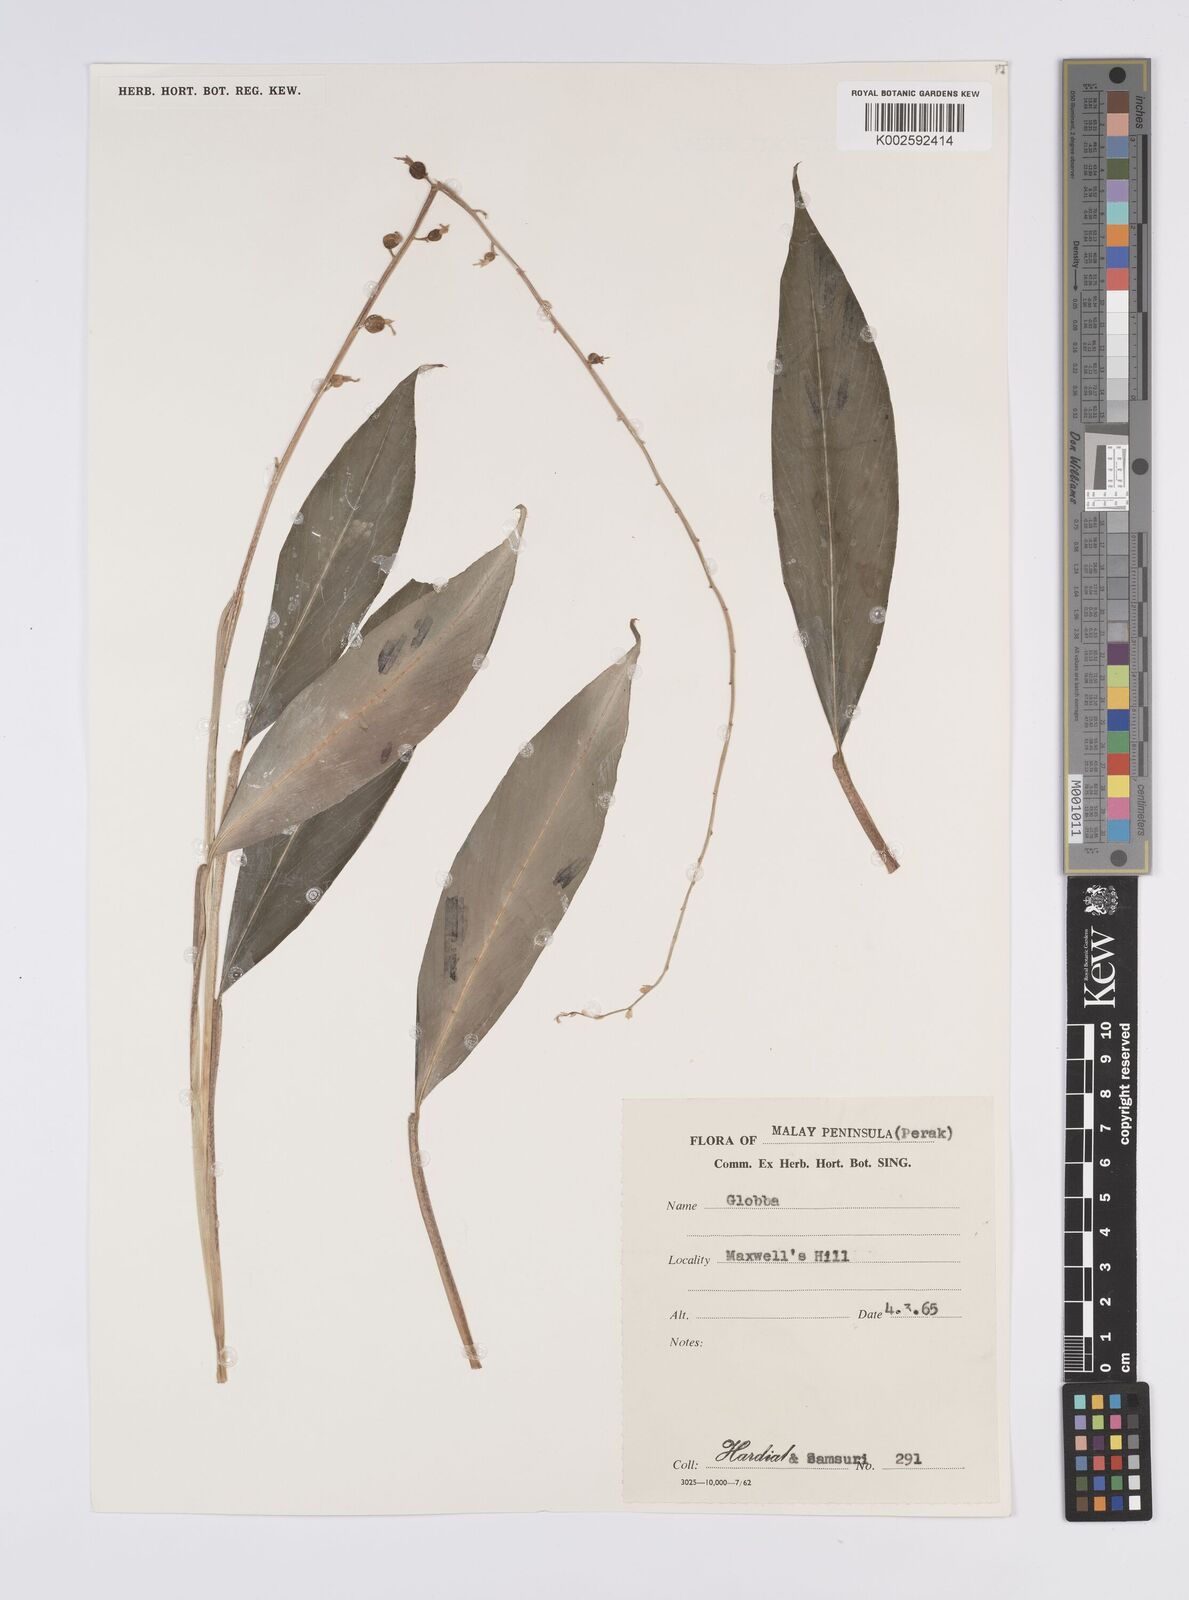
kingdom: Plantae
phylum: Tracheophyta
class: Liliopsida
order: Zingiberales
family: Zingiberaceae
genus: Globba
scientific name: Globba pendula
